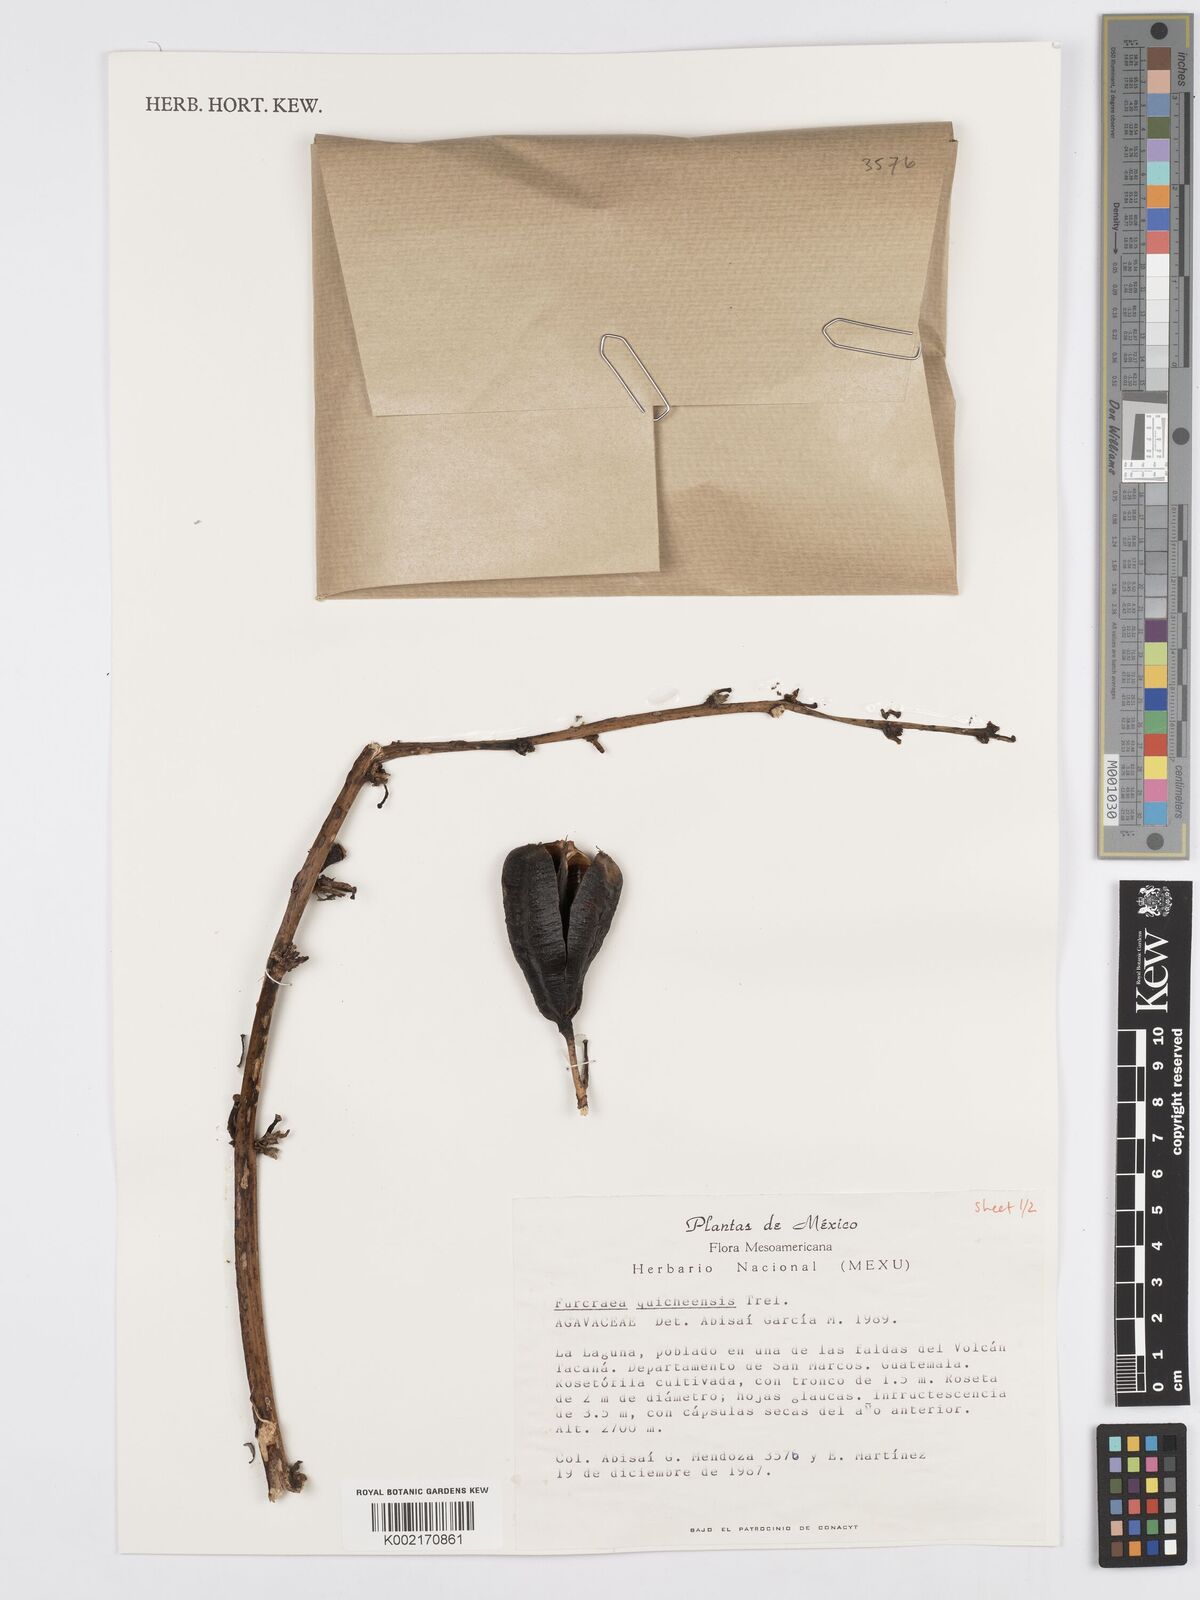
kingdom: Plantae
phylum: Tracheophyta
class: Liliopsida
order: Asparagales
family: Asparagaceae
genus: Furcraea
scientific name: Furcraea quicheensis
